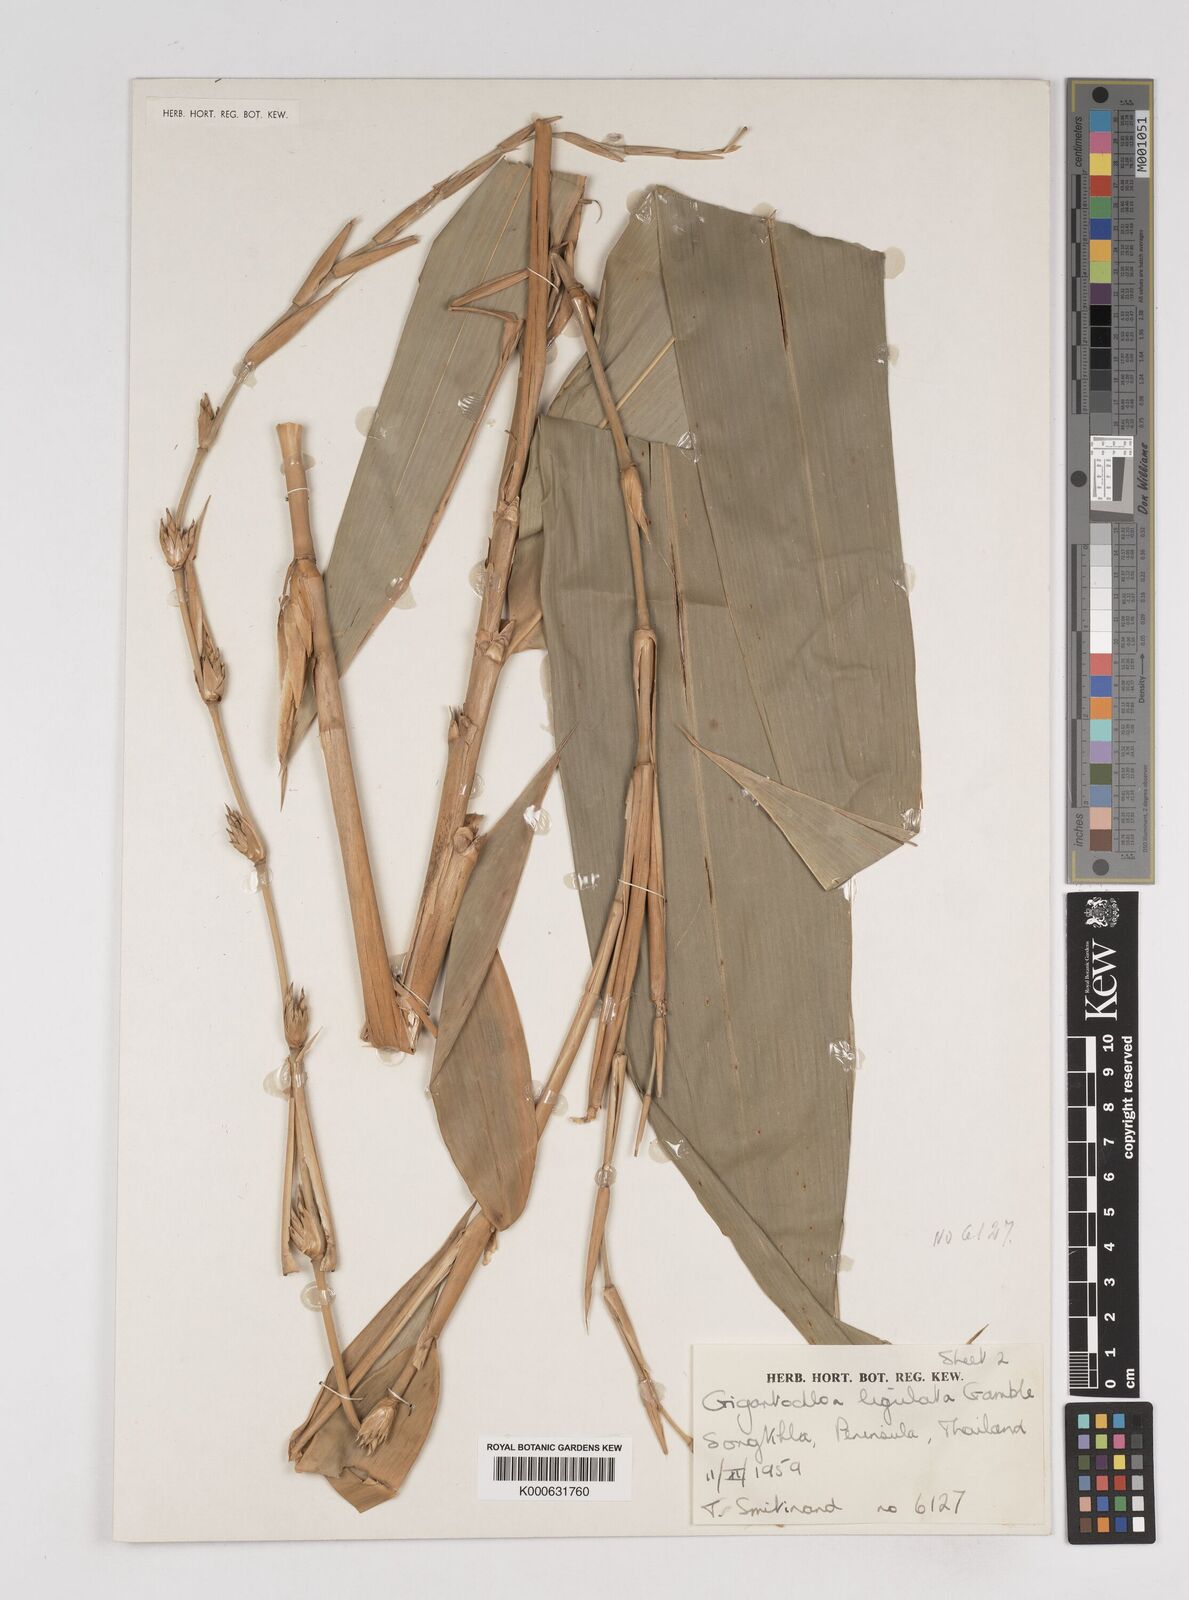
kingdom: Plantae
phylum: Tracheophyta
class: Liliopsida
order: Poales
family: Poaceae
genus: Gigantochloa
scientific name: Gigantochloa ligulata
